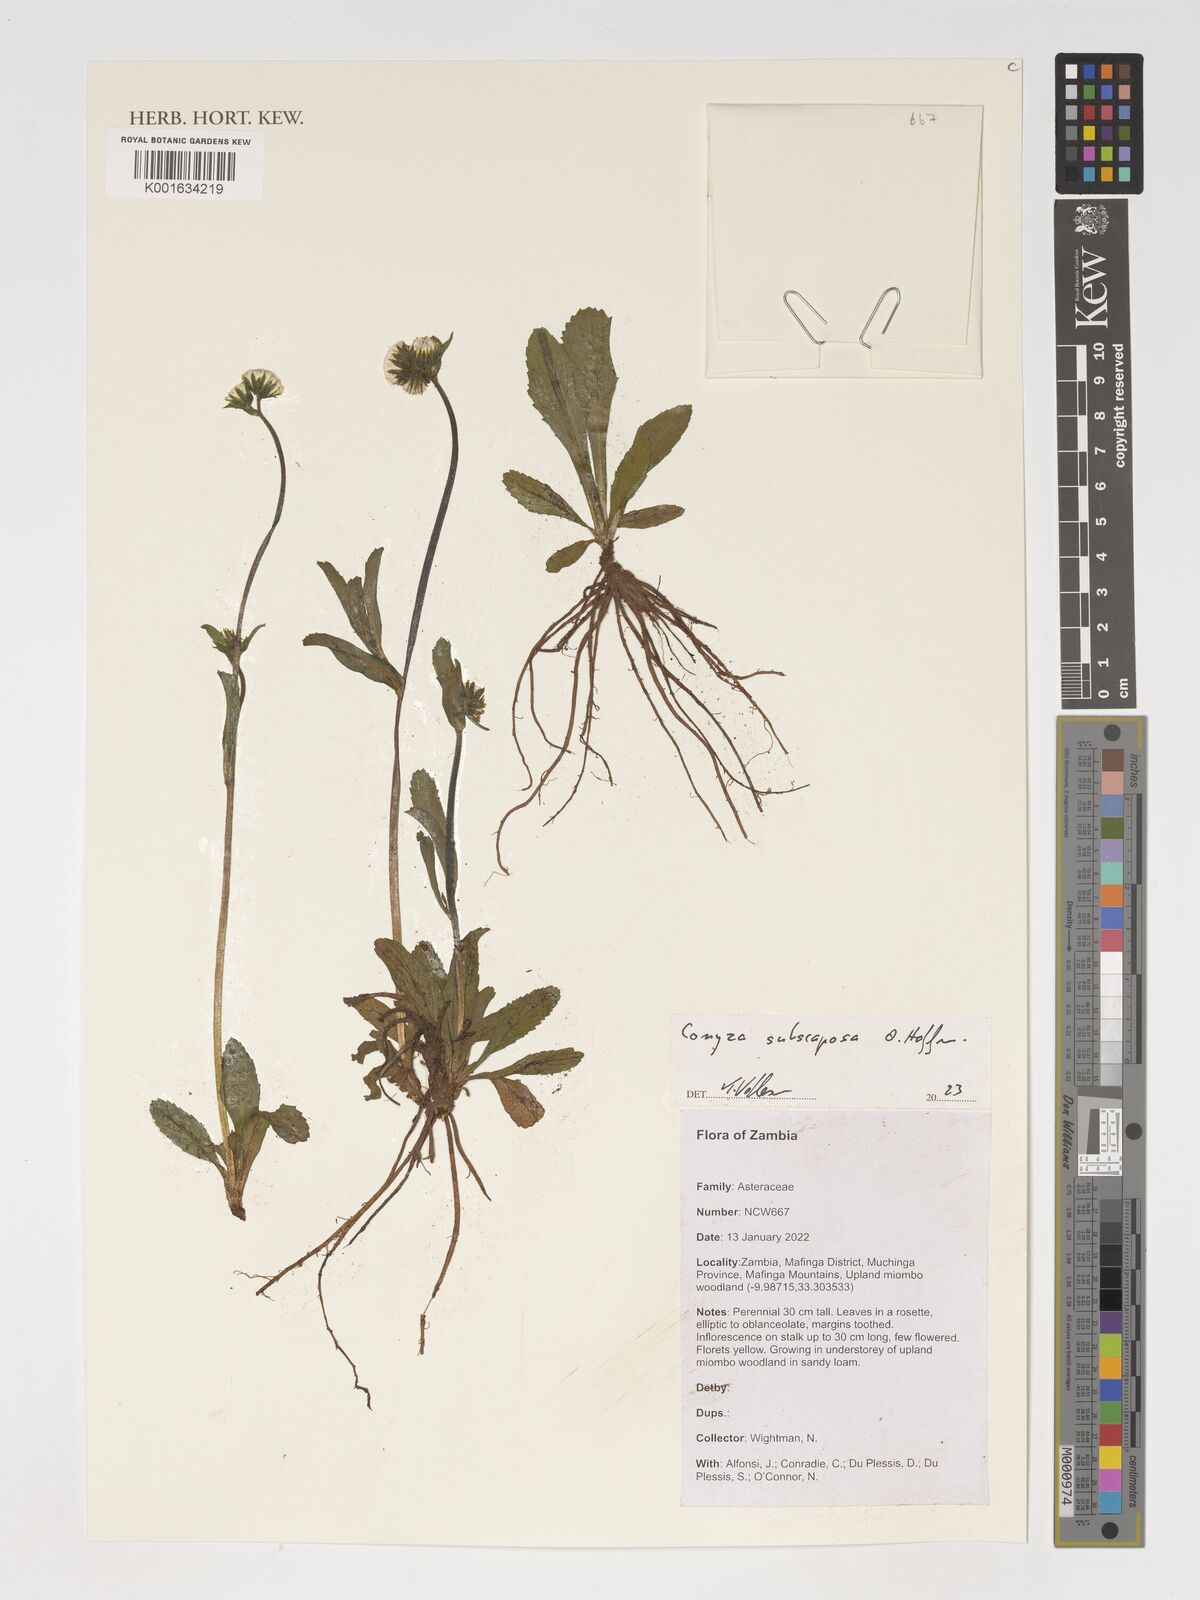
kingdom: Plantae
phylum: Tracheophyta
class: Magnoliopsida
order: Asterales
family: Asteraceae
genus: Eschenbachia
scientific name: Eschenbachia subscaposa
